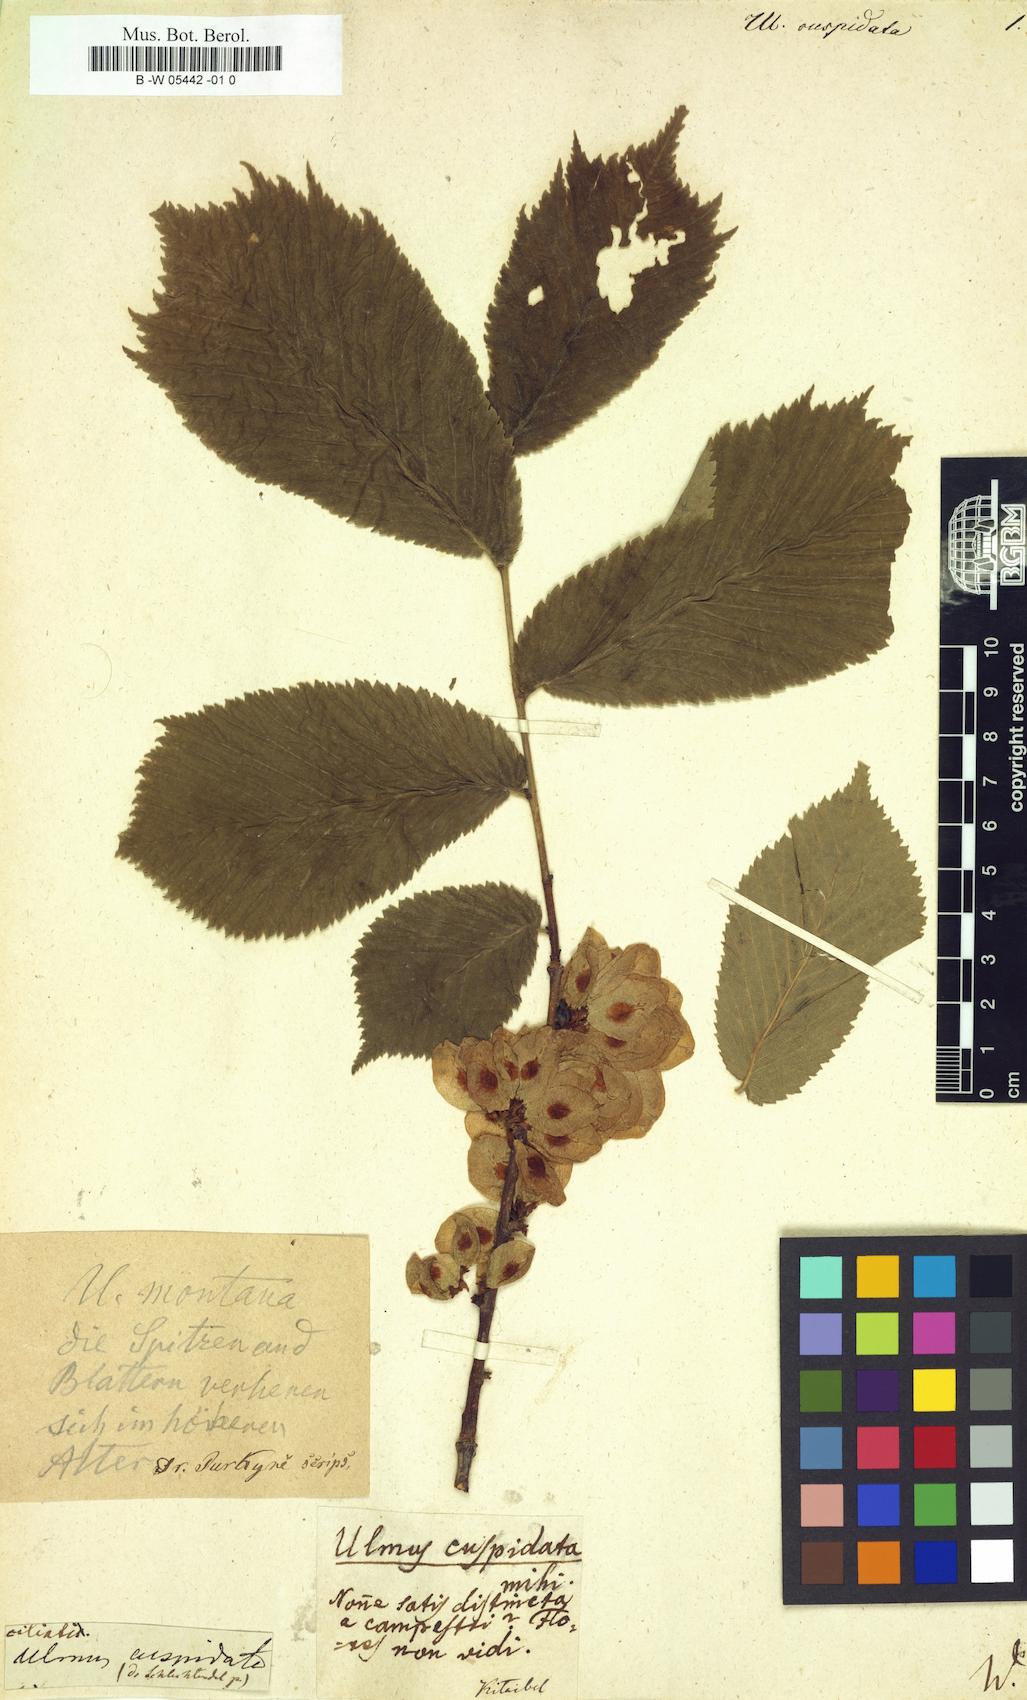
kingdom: Plantae
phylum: Tracheophyta
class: Magnoliopsida
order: Rosales
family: Ulmaceae
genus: Ulmus
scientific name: Ulmus
